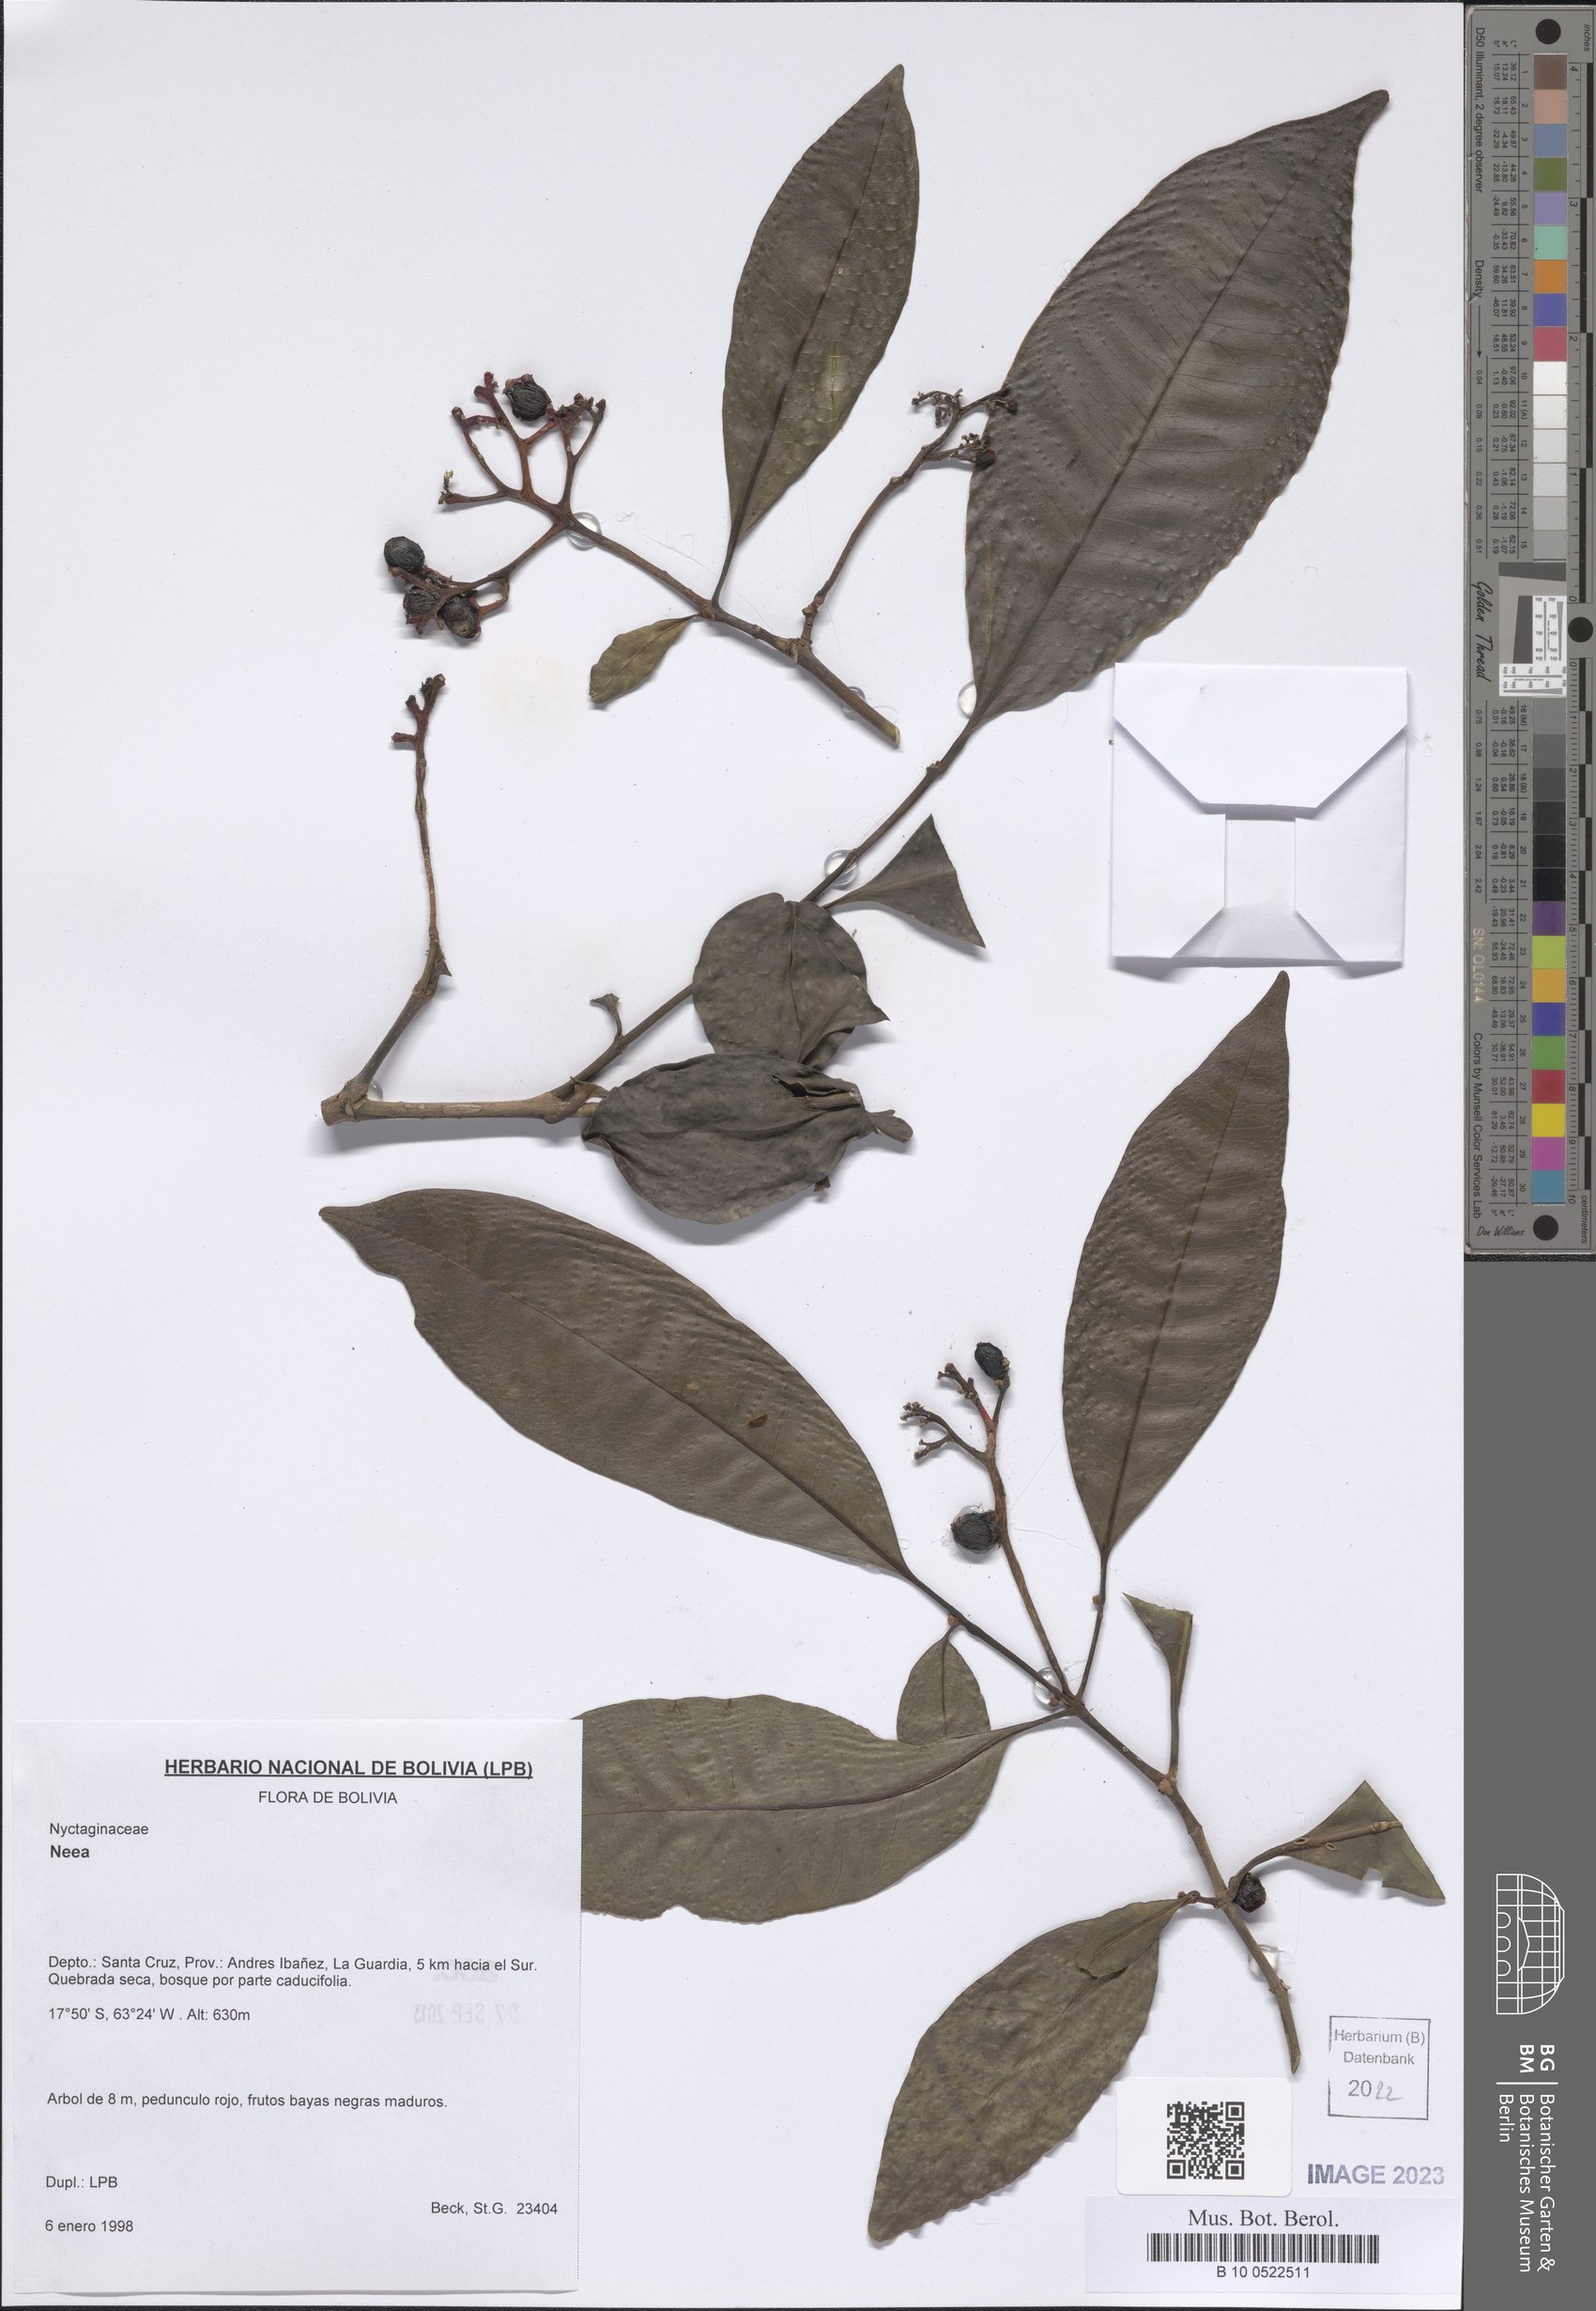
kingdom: Plantae
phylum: Tracheophyta
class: Magnoliopsida
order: Caryophyllales
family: Nyctaginaceae
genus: Neea
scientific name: Neea
